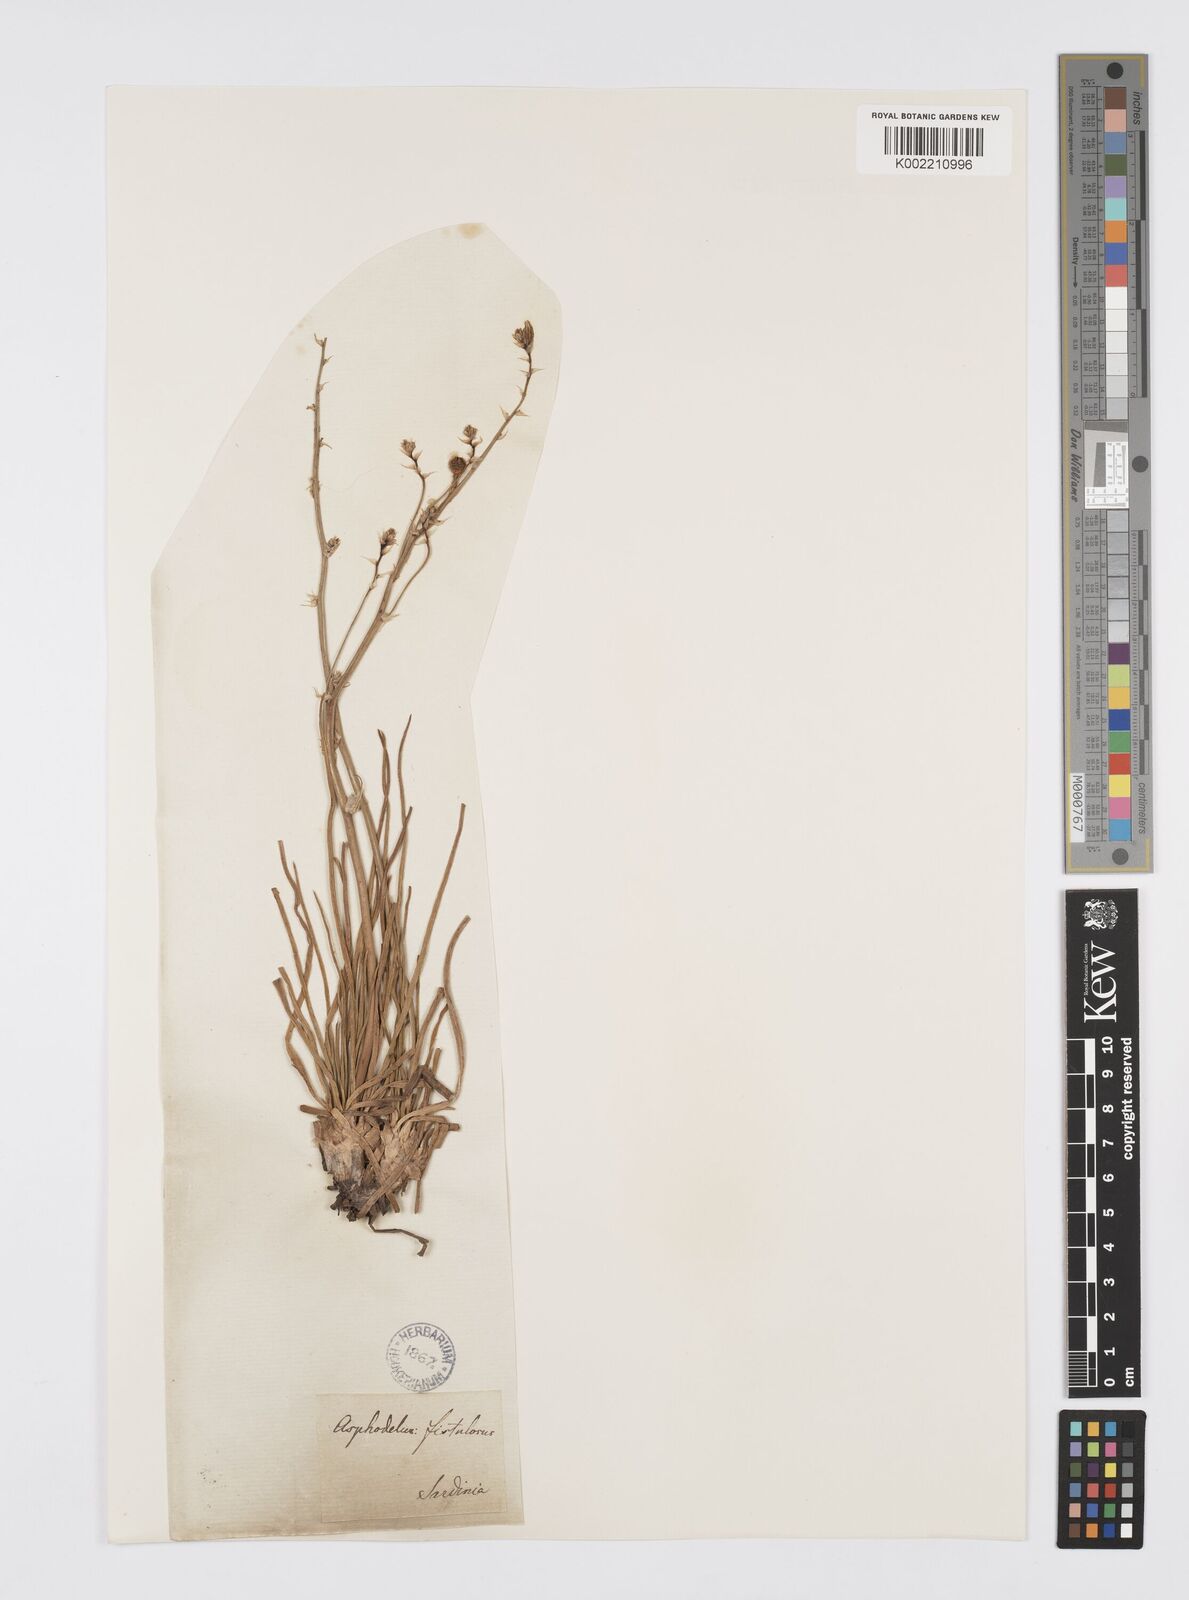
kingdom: Plantae
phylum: Tracheophyta
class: Liliopsida
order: Asparagales
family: Asphodelaceae
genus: Asphodelus
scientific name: Asphodelus fistulosus
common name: Onionweed
